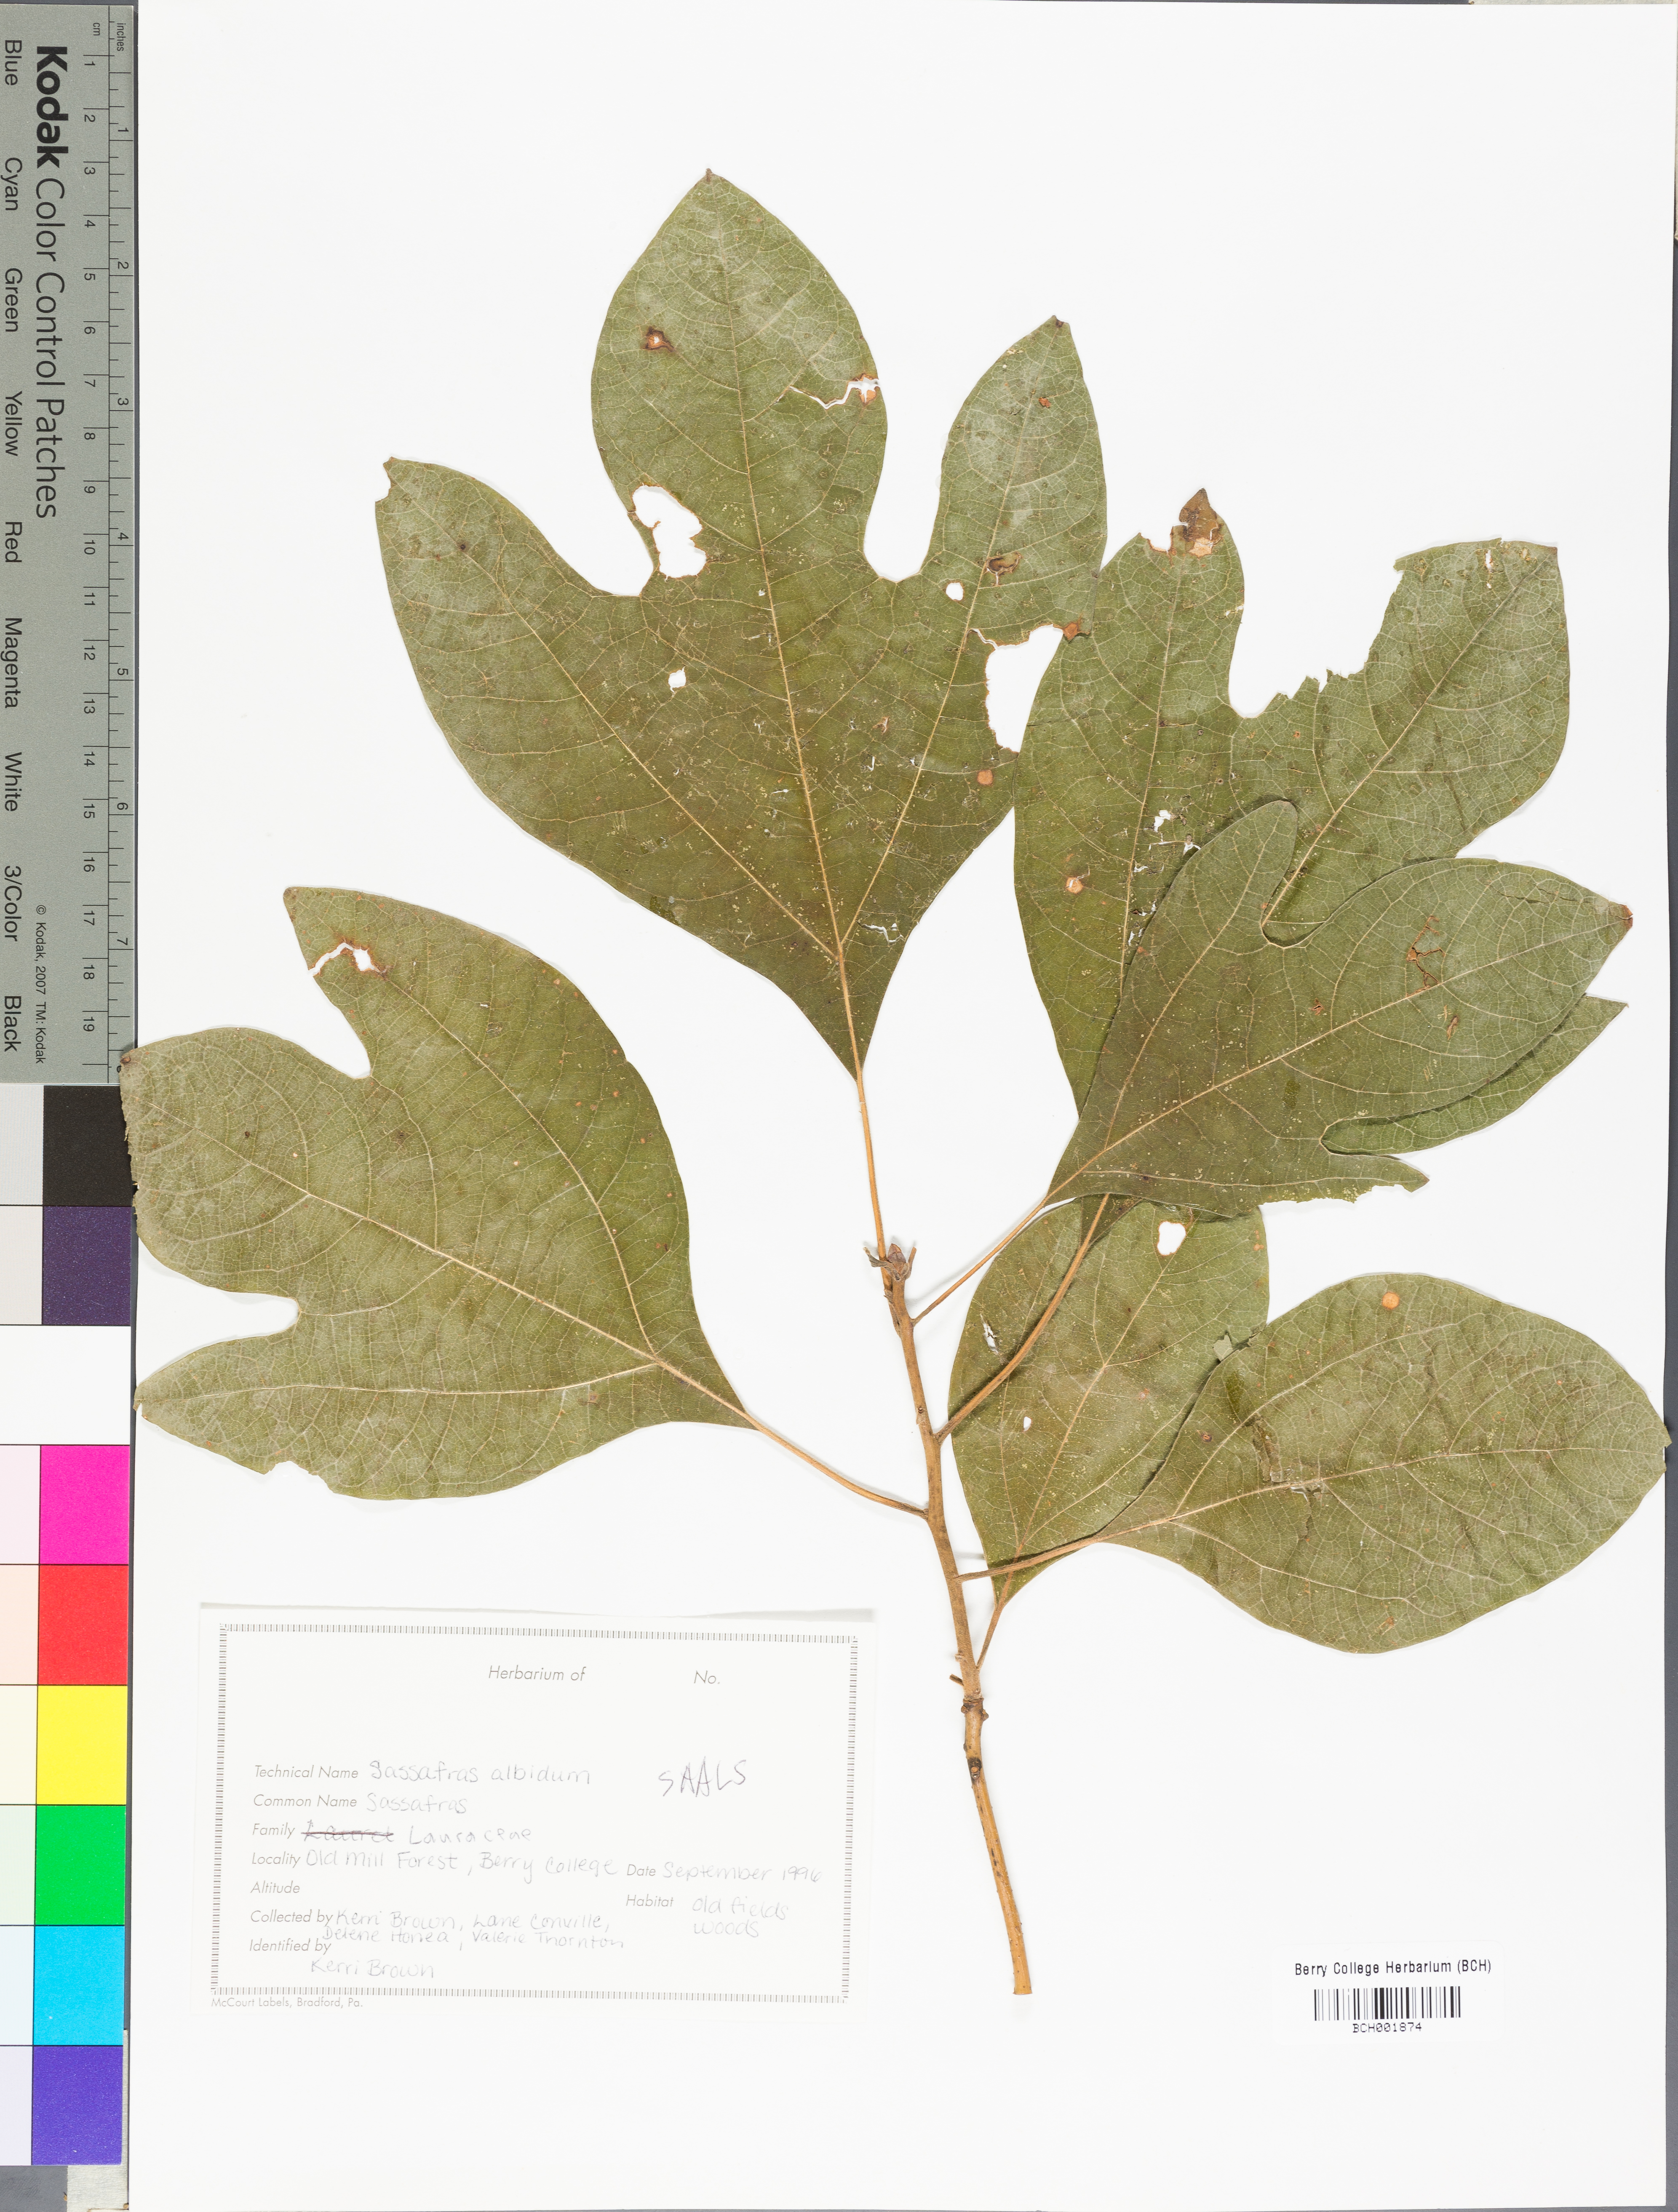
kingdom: Plantae
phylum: Tracheophyta
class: Magnoliopsida
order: Laurales
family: Lauraceae
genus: Sassafras
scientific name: Sassafras albidum
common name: Sassafras
